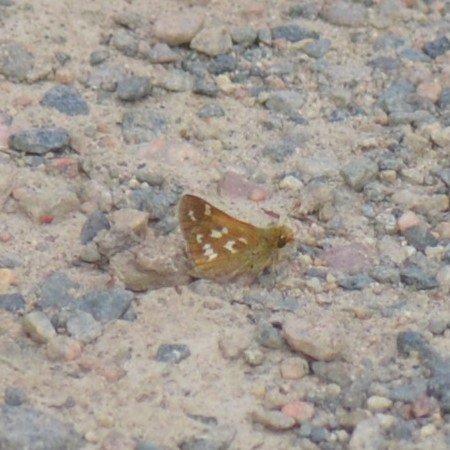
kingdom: Animalia
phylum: Arthropoda
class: Insecta
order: Lepidoptera
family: Hesperiidae
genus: Hesperia
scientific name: Hesperia comma
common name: Common Branded Skipper
